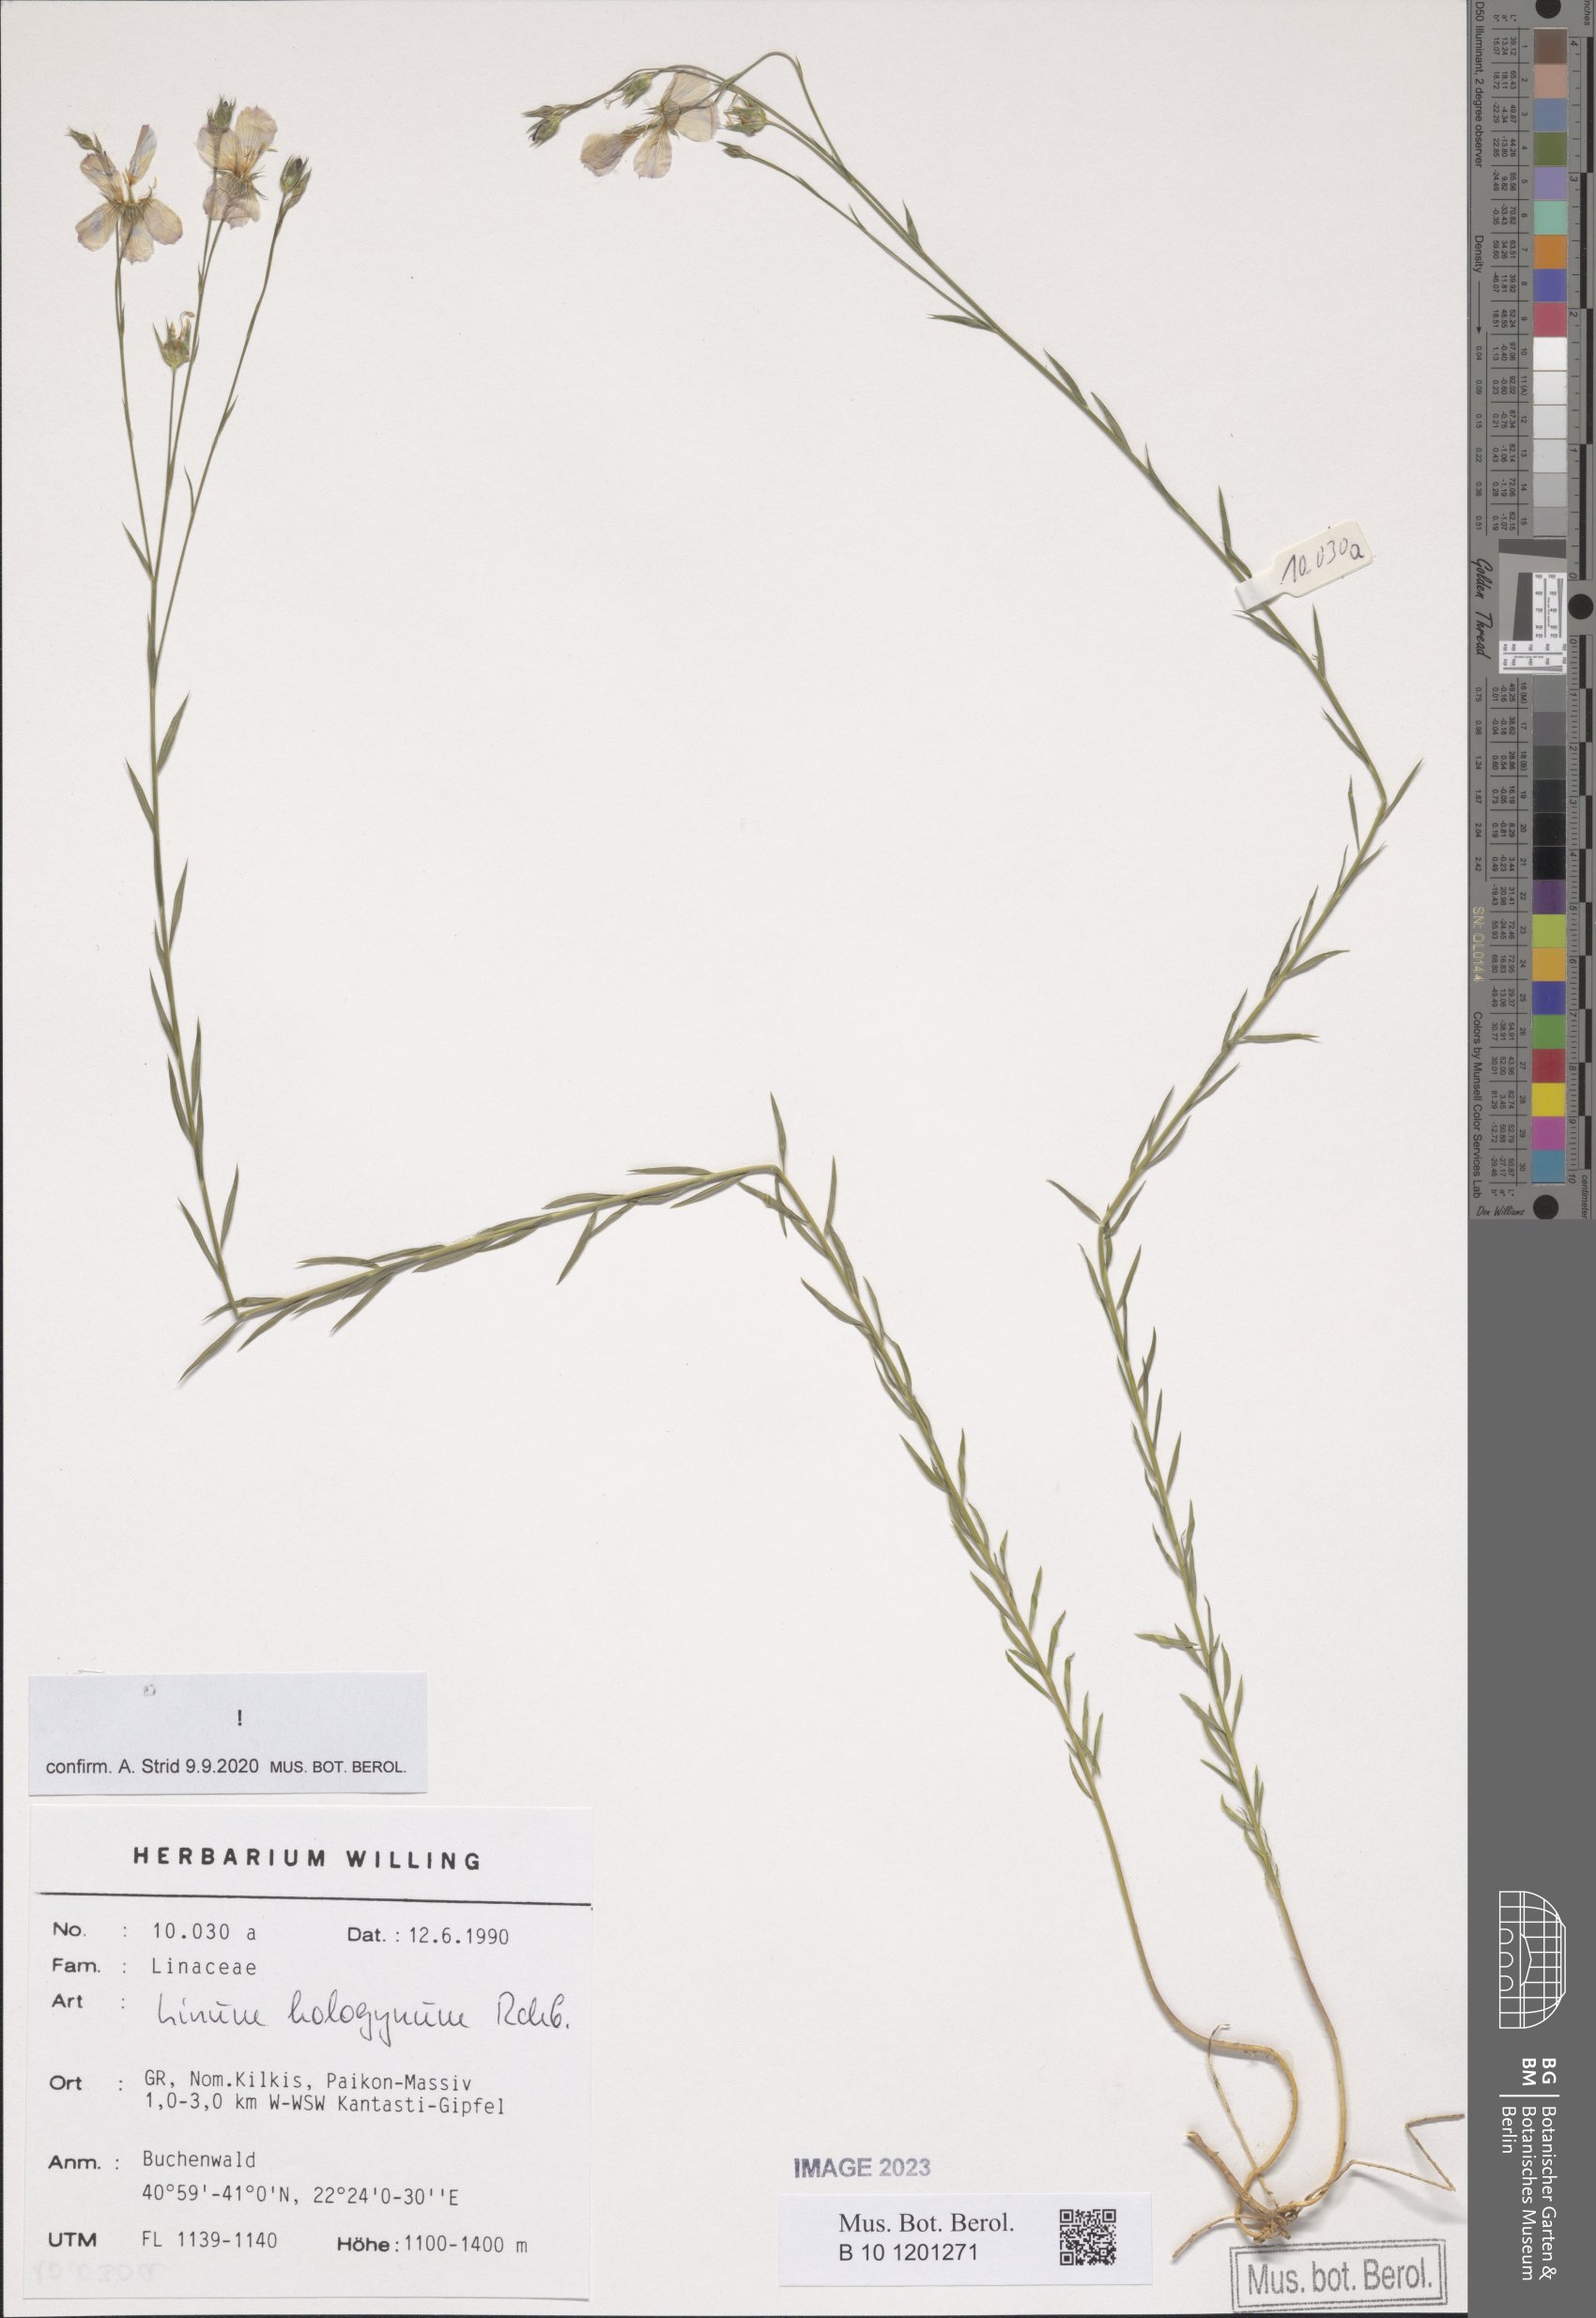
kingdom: Plantae
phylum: Tracheophyta
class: Magnoliopsida
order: Malpighiales
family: Linaceae
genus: Linum
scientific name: Linum hologynum
